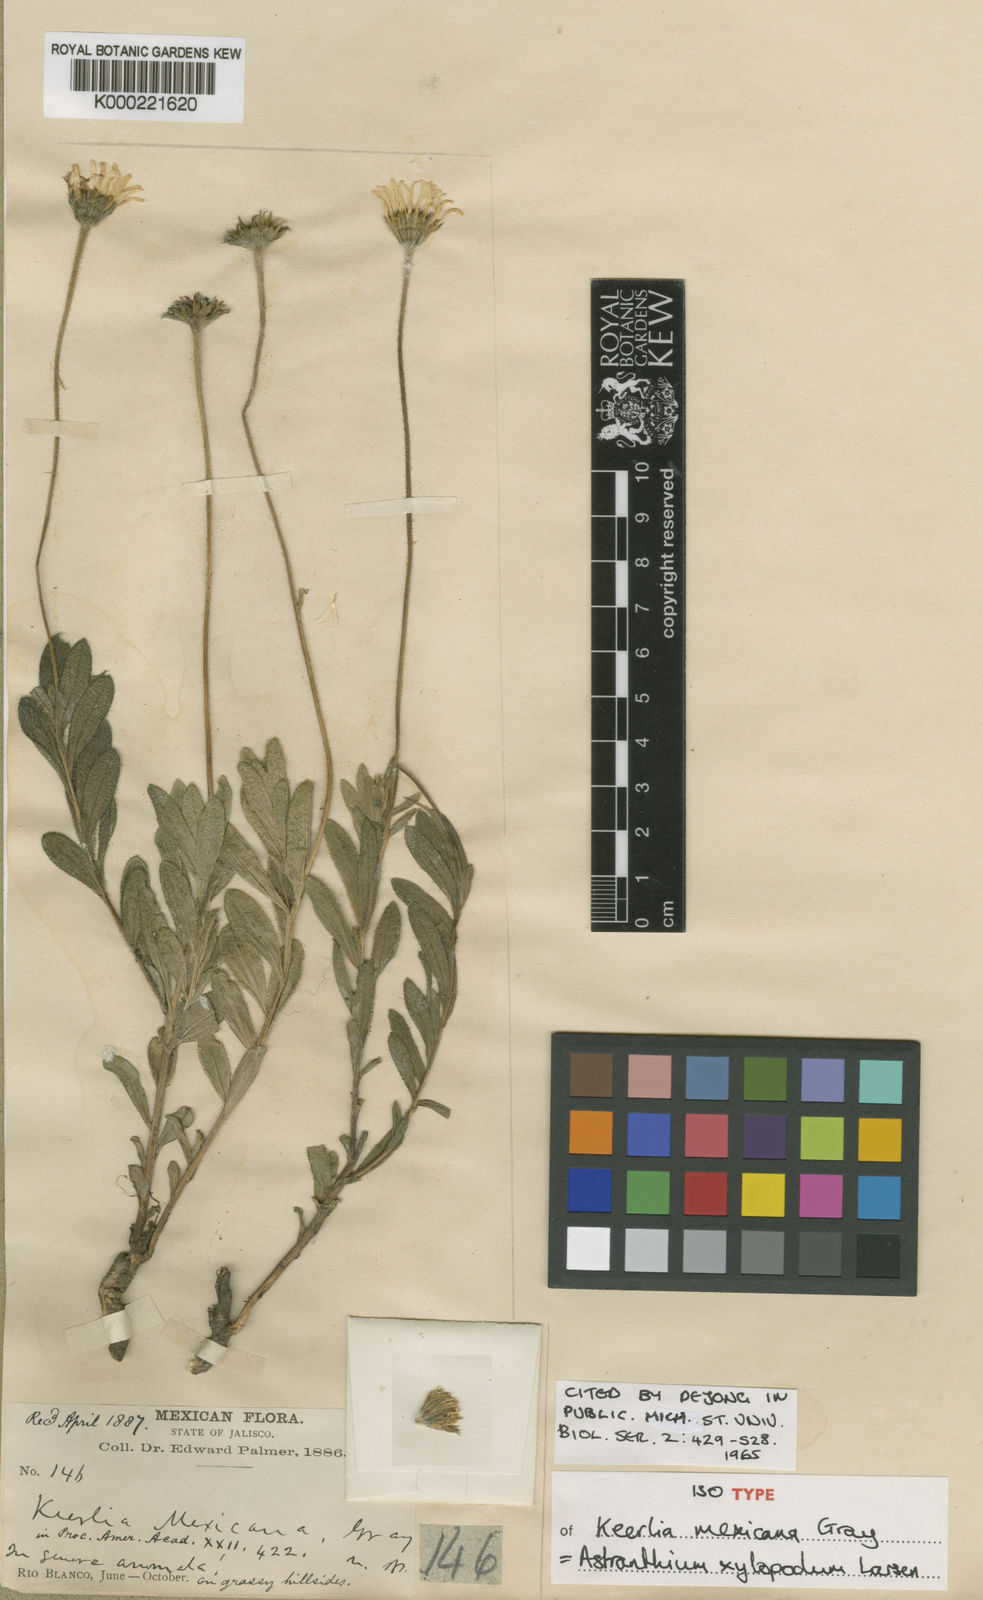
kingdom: Plantae
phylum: Tracheophyta
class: Magnoliopsida
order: Asterales
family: Asteraceae
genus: Astranthium
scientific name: Astranthium xylopodum
